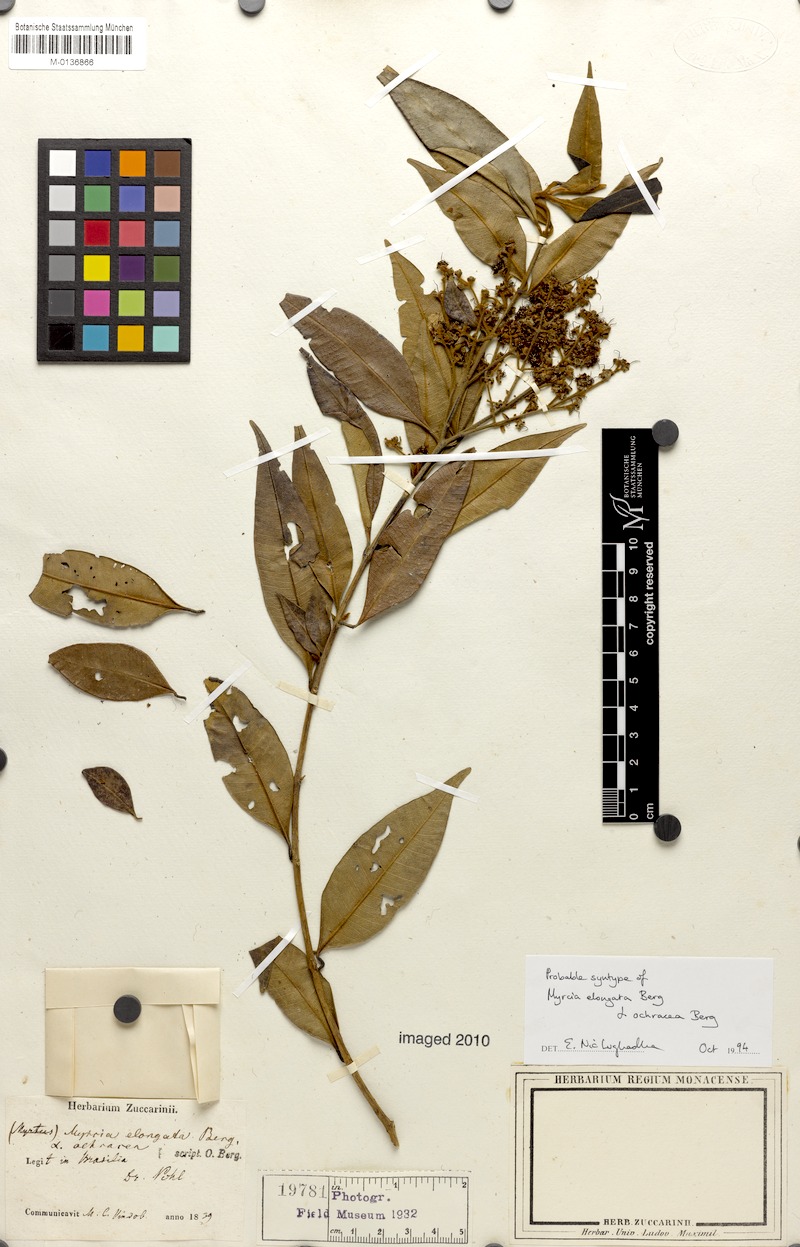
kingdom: Plantae
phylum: Tracheophyta
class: Magnoliopsida
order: Myrtales
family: Myrtaceae
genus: Myrcia
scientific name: Myrcia splendens
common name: Surinam cherry
